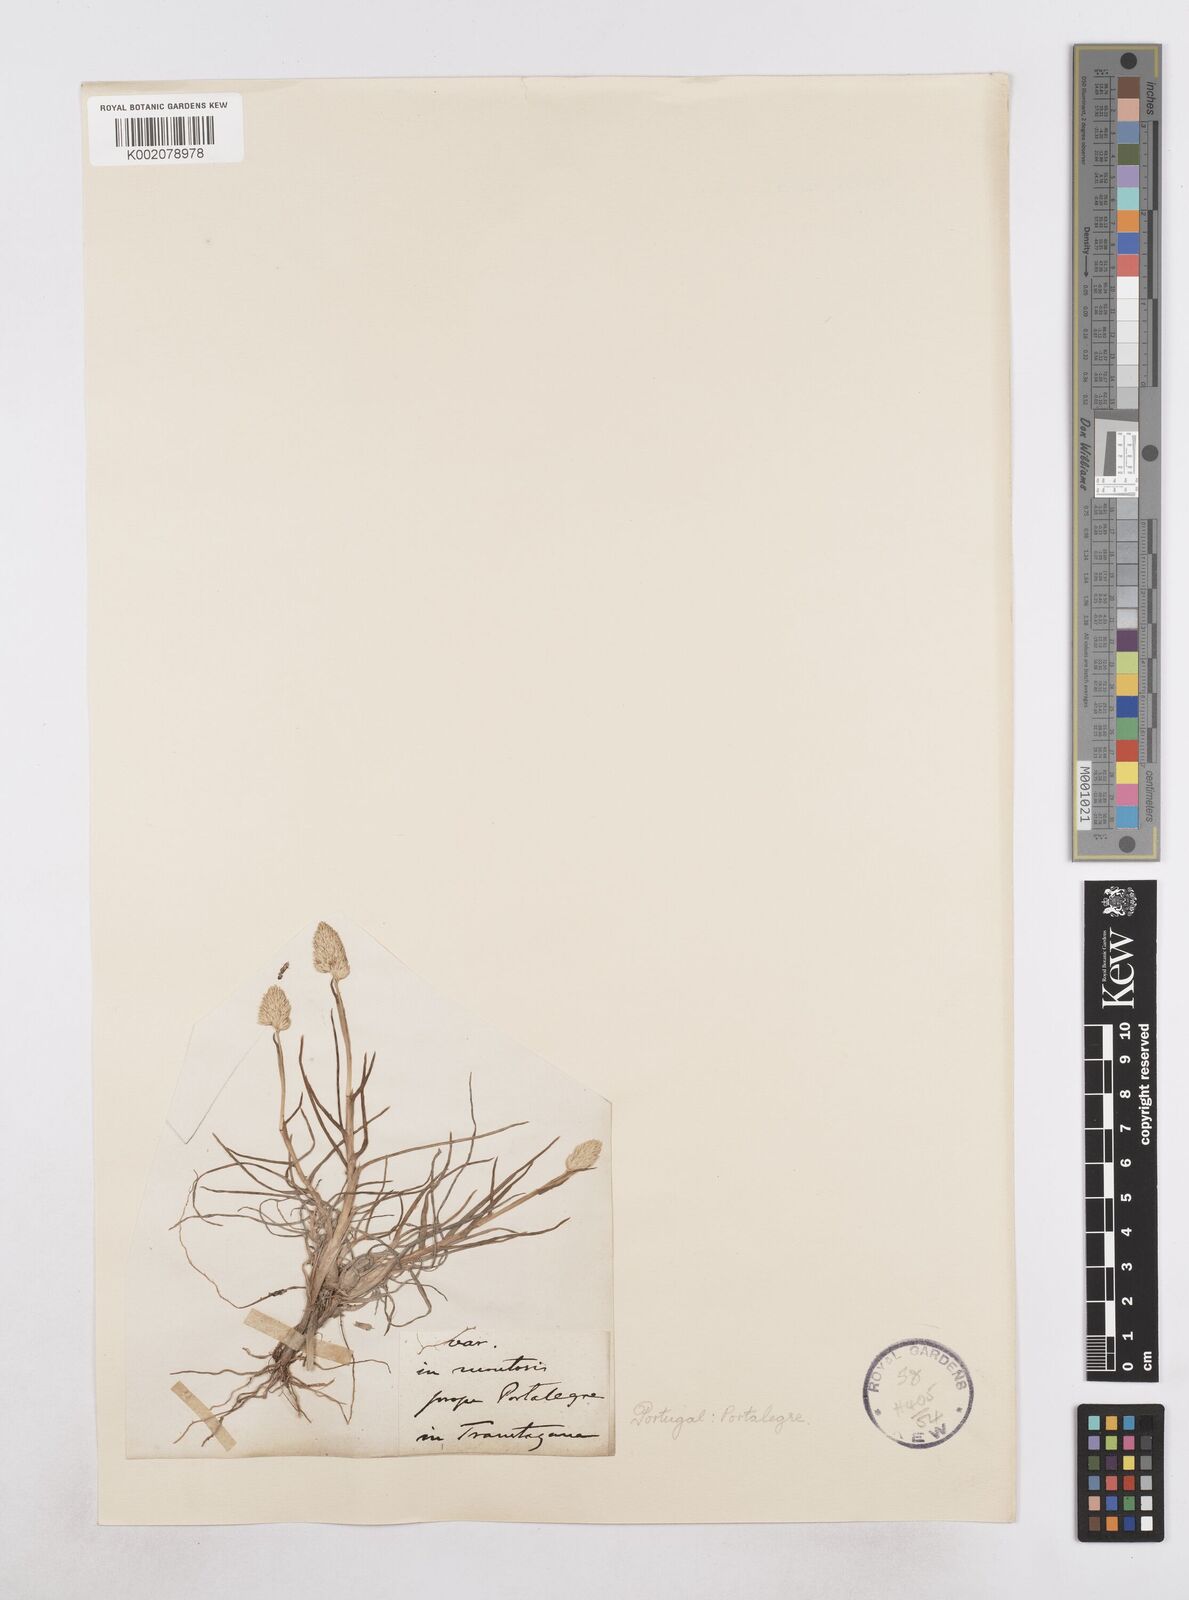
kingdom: Plantae
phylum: Tracheophyta
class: Liliopsida
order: Poales
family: Poaceae
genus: Dactylis
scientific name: Dactylis glomerata
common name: Orchardgrass
